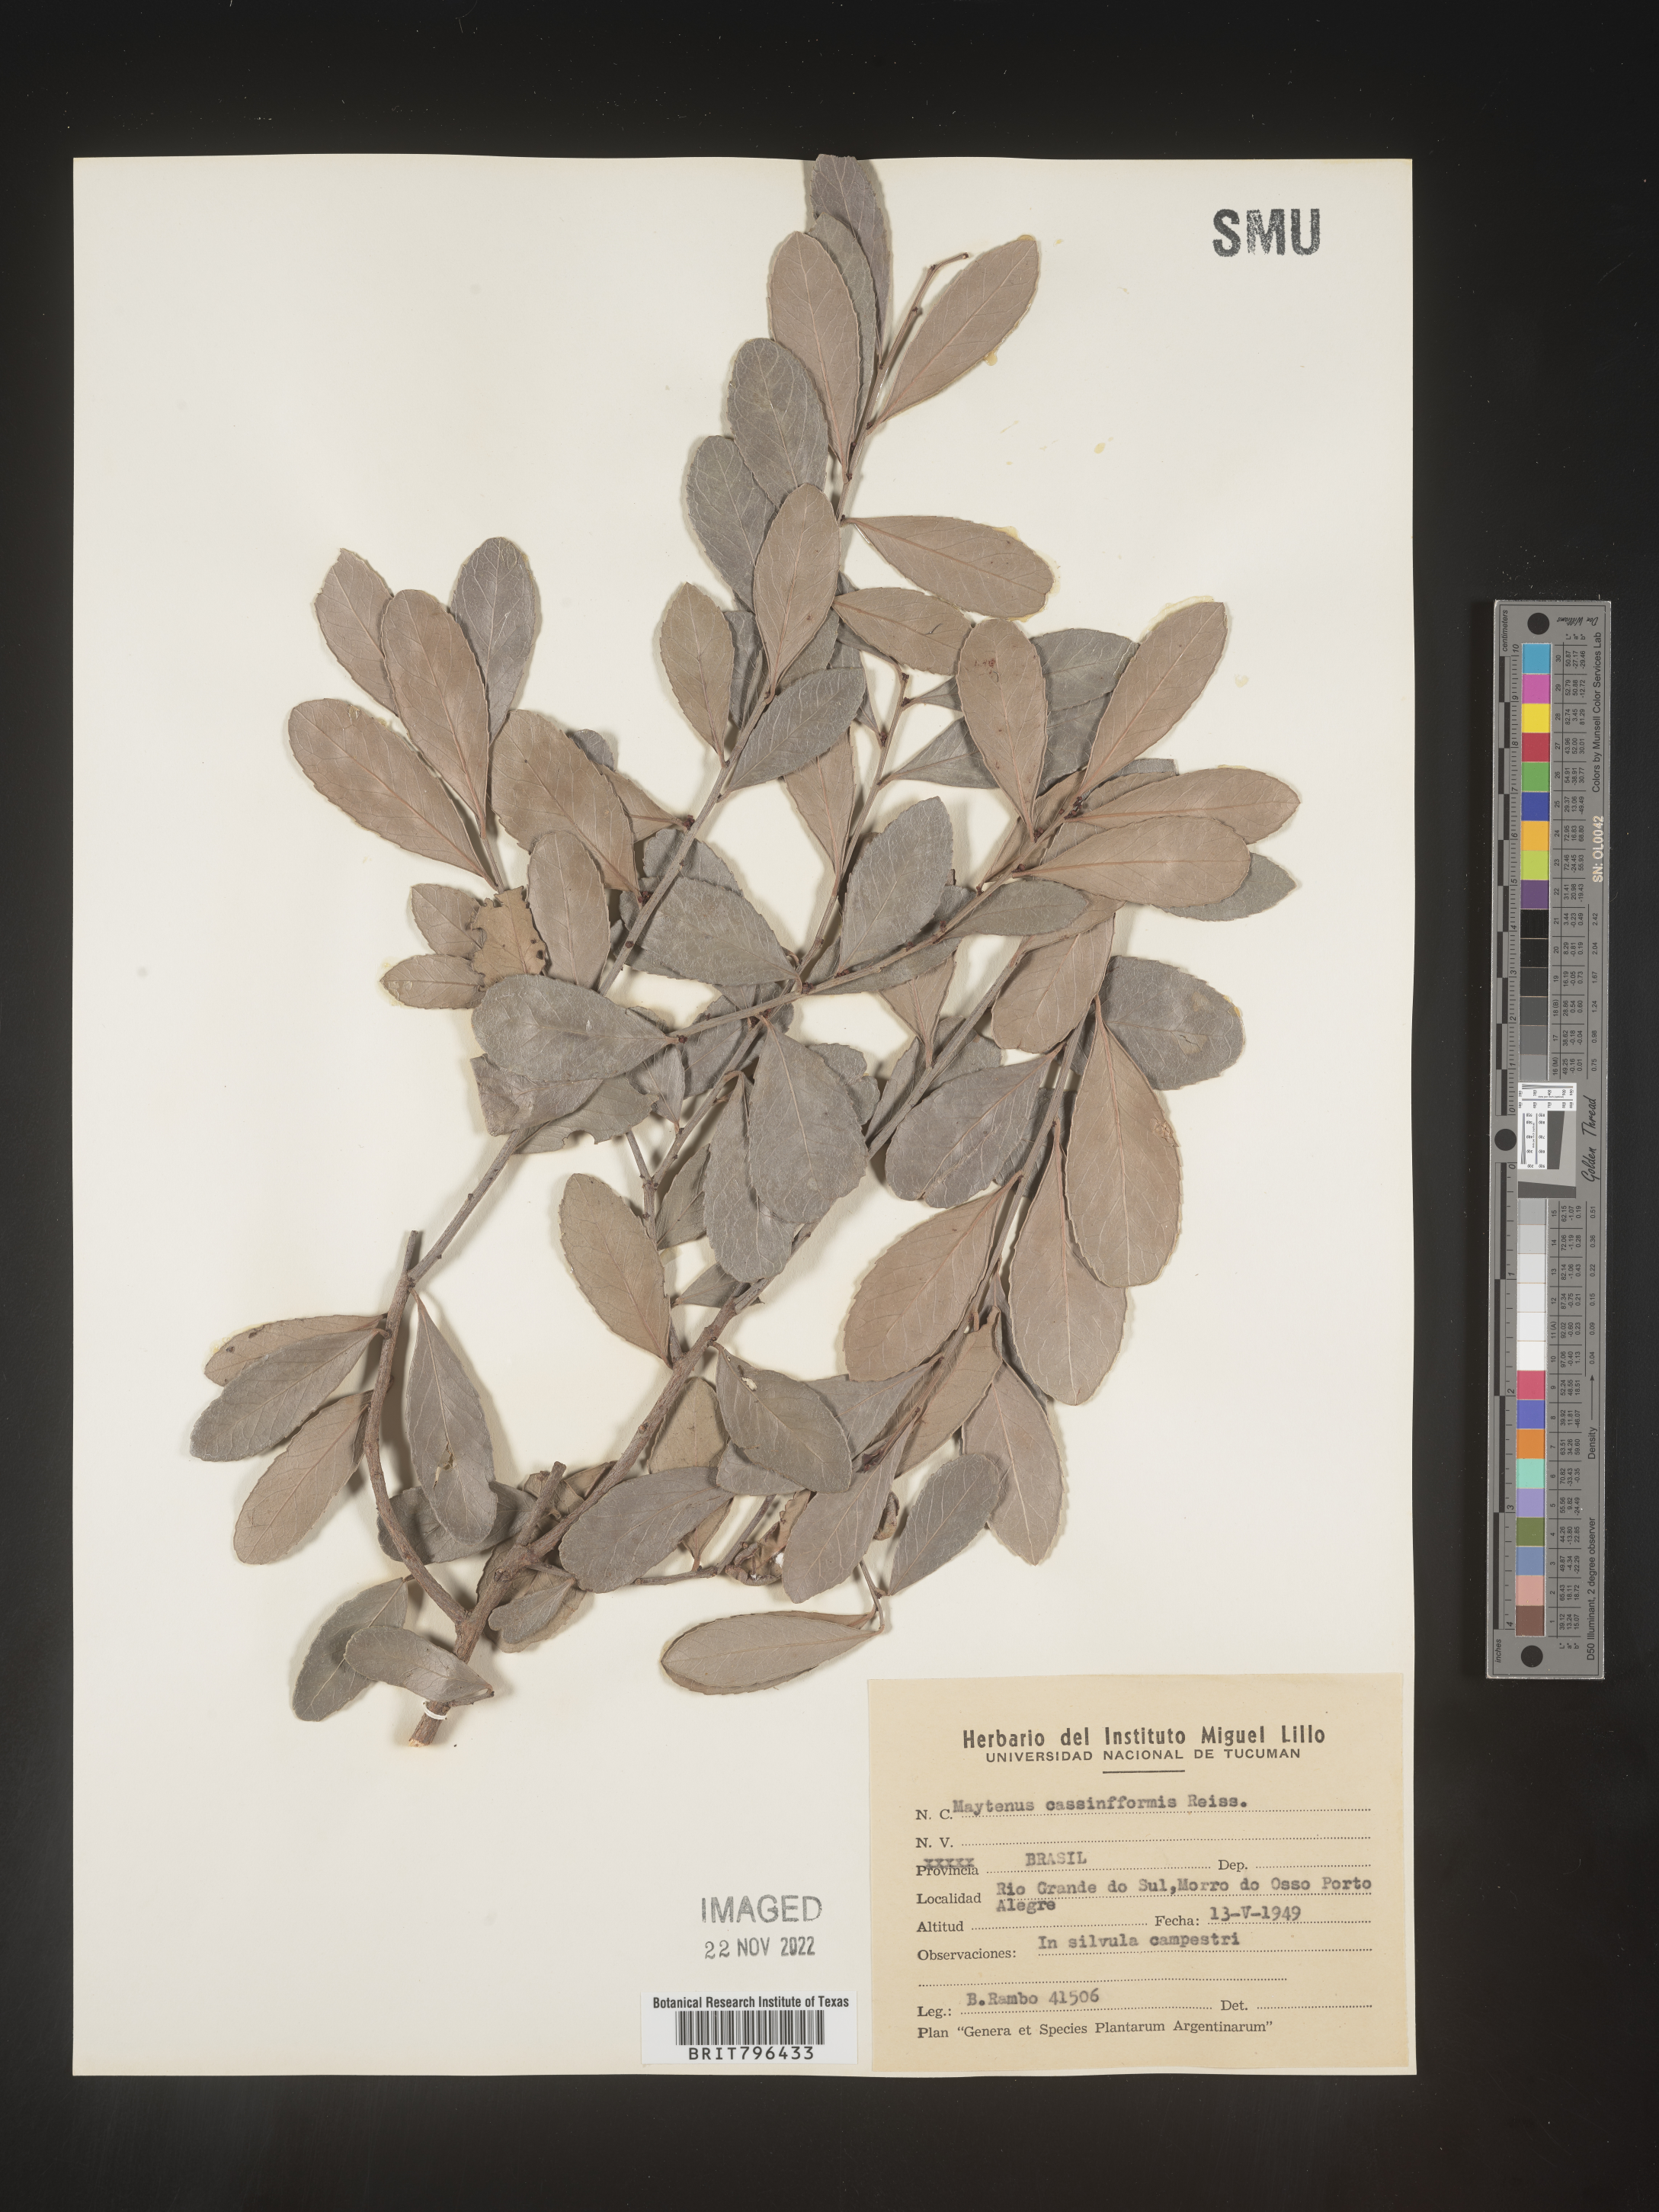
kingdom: Plantae
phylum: Tracheophyta
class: Magnoliopsida
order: Celastrales
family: Celastraceae
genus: Maytenus
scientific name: Maytenus
